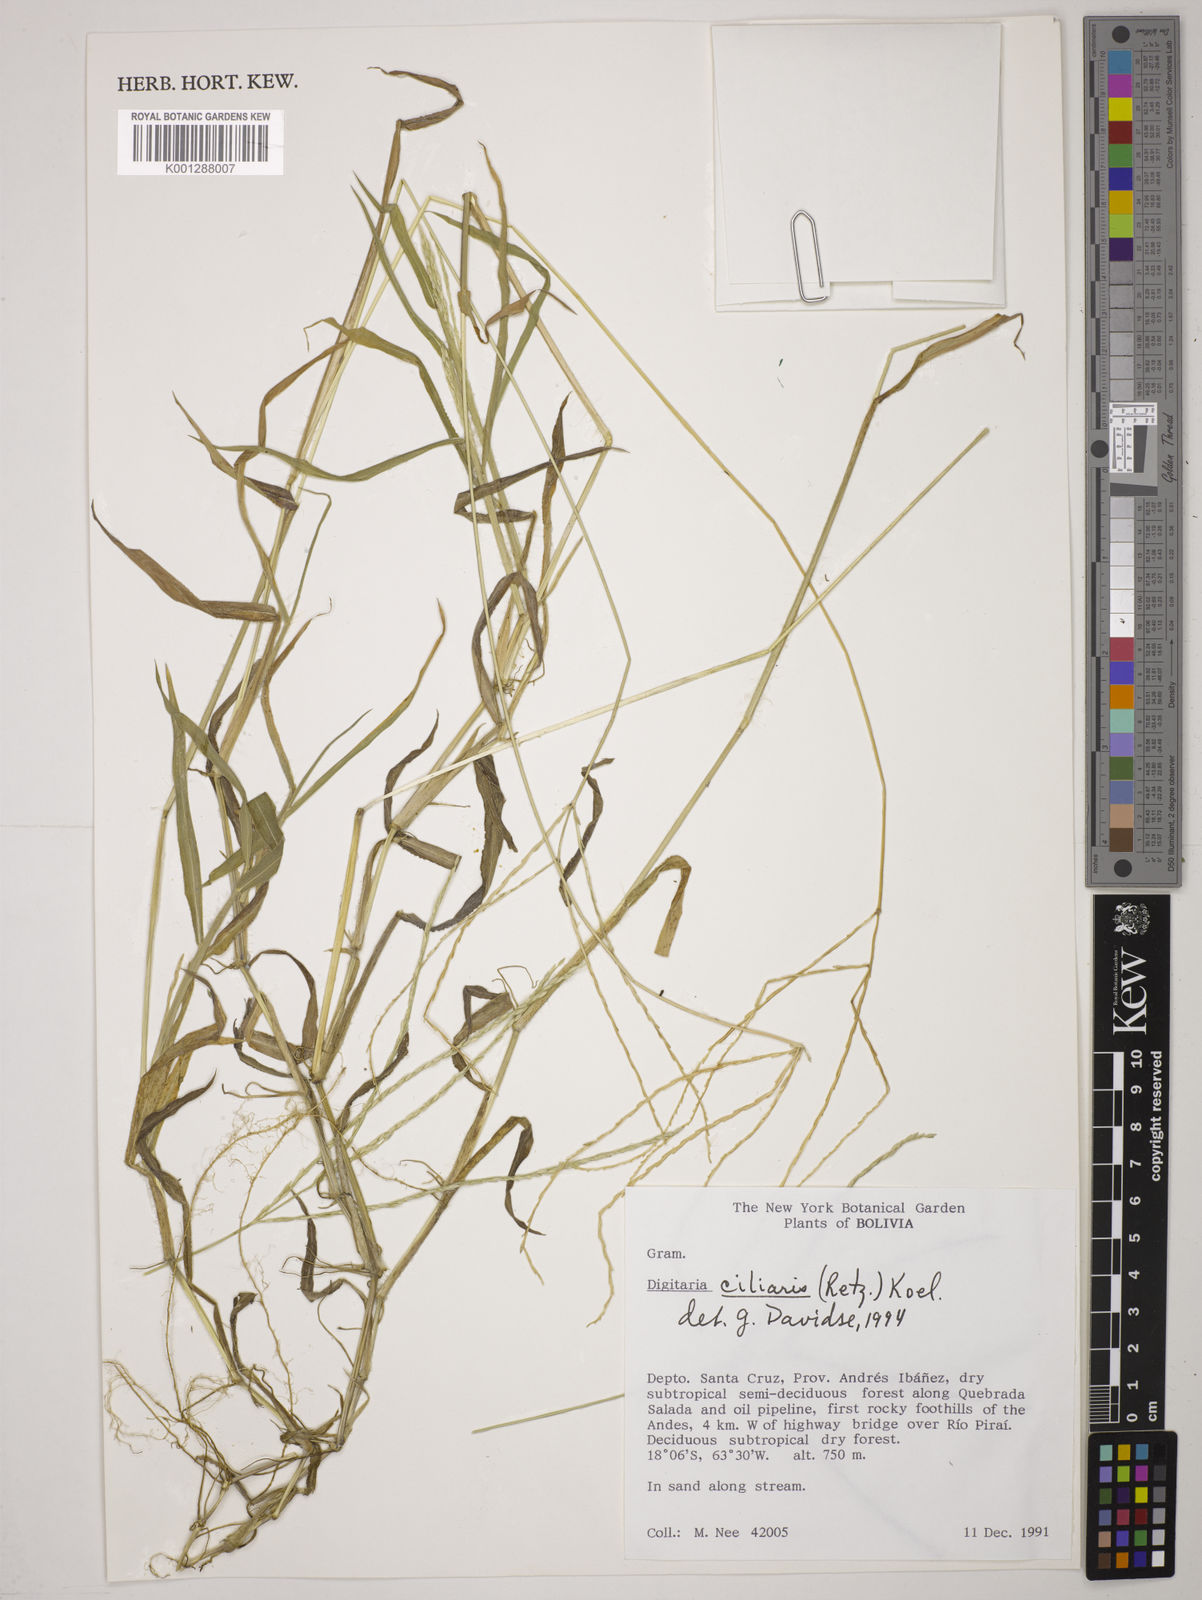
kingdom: Plantae
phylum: Tracheophyta
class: Liliopsida
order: Poales
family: Poaceae
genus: Digitaria
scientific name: Digitaria
